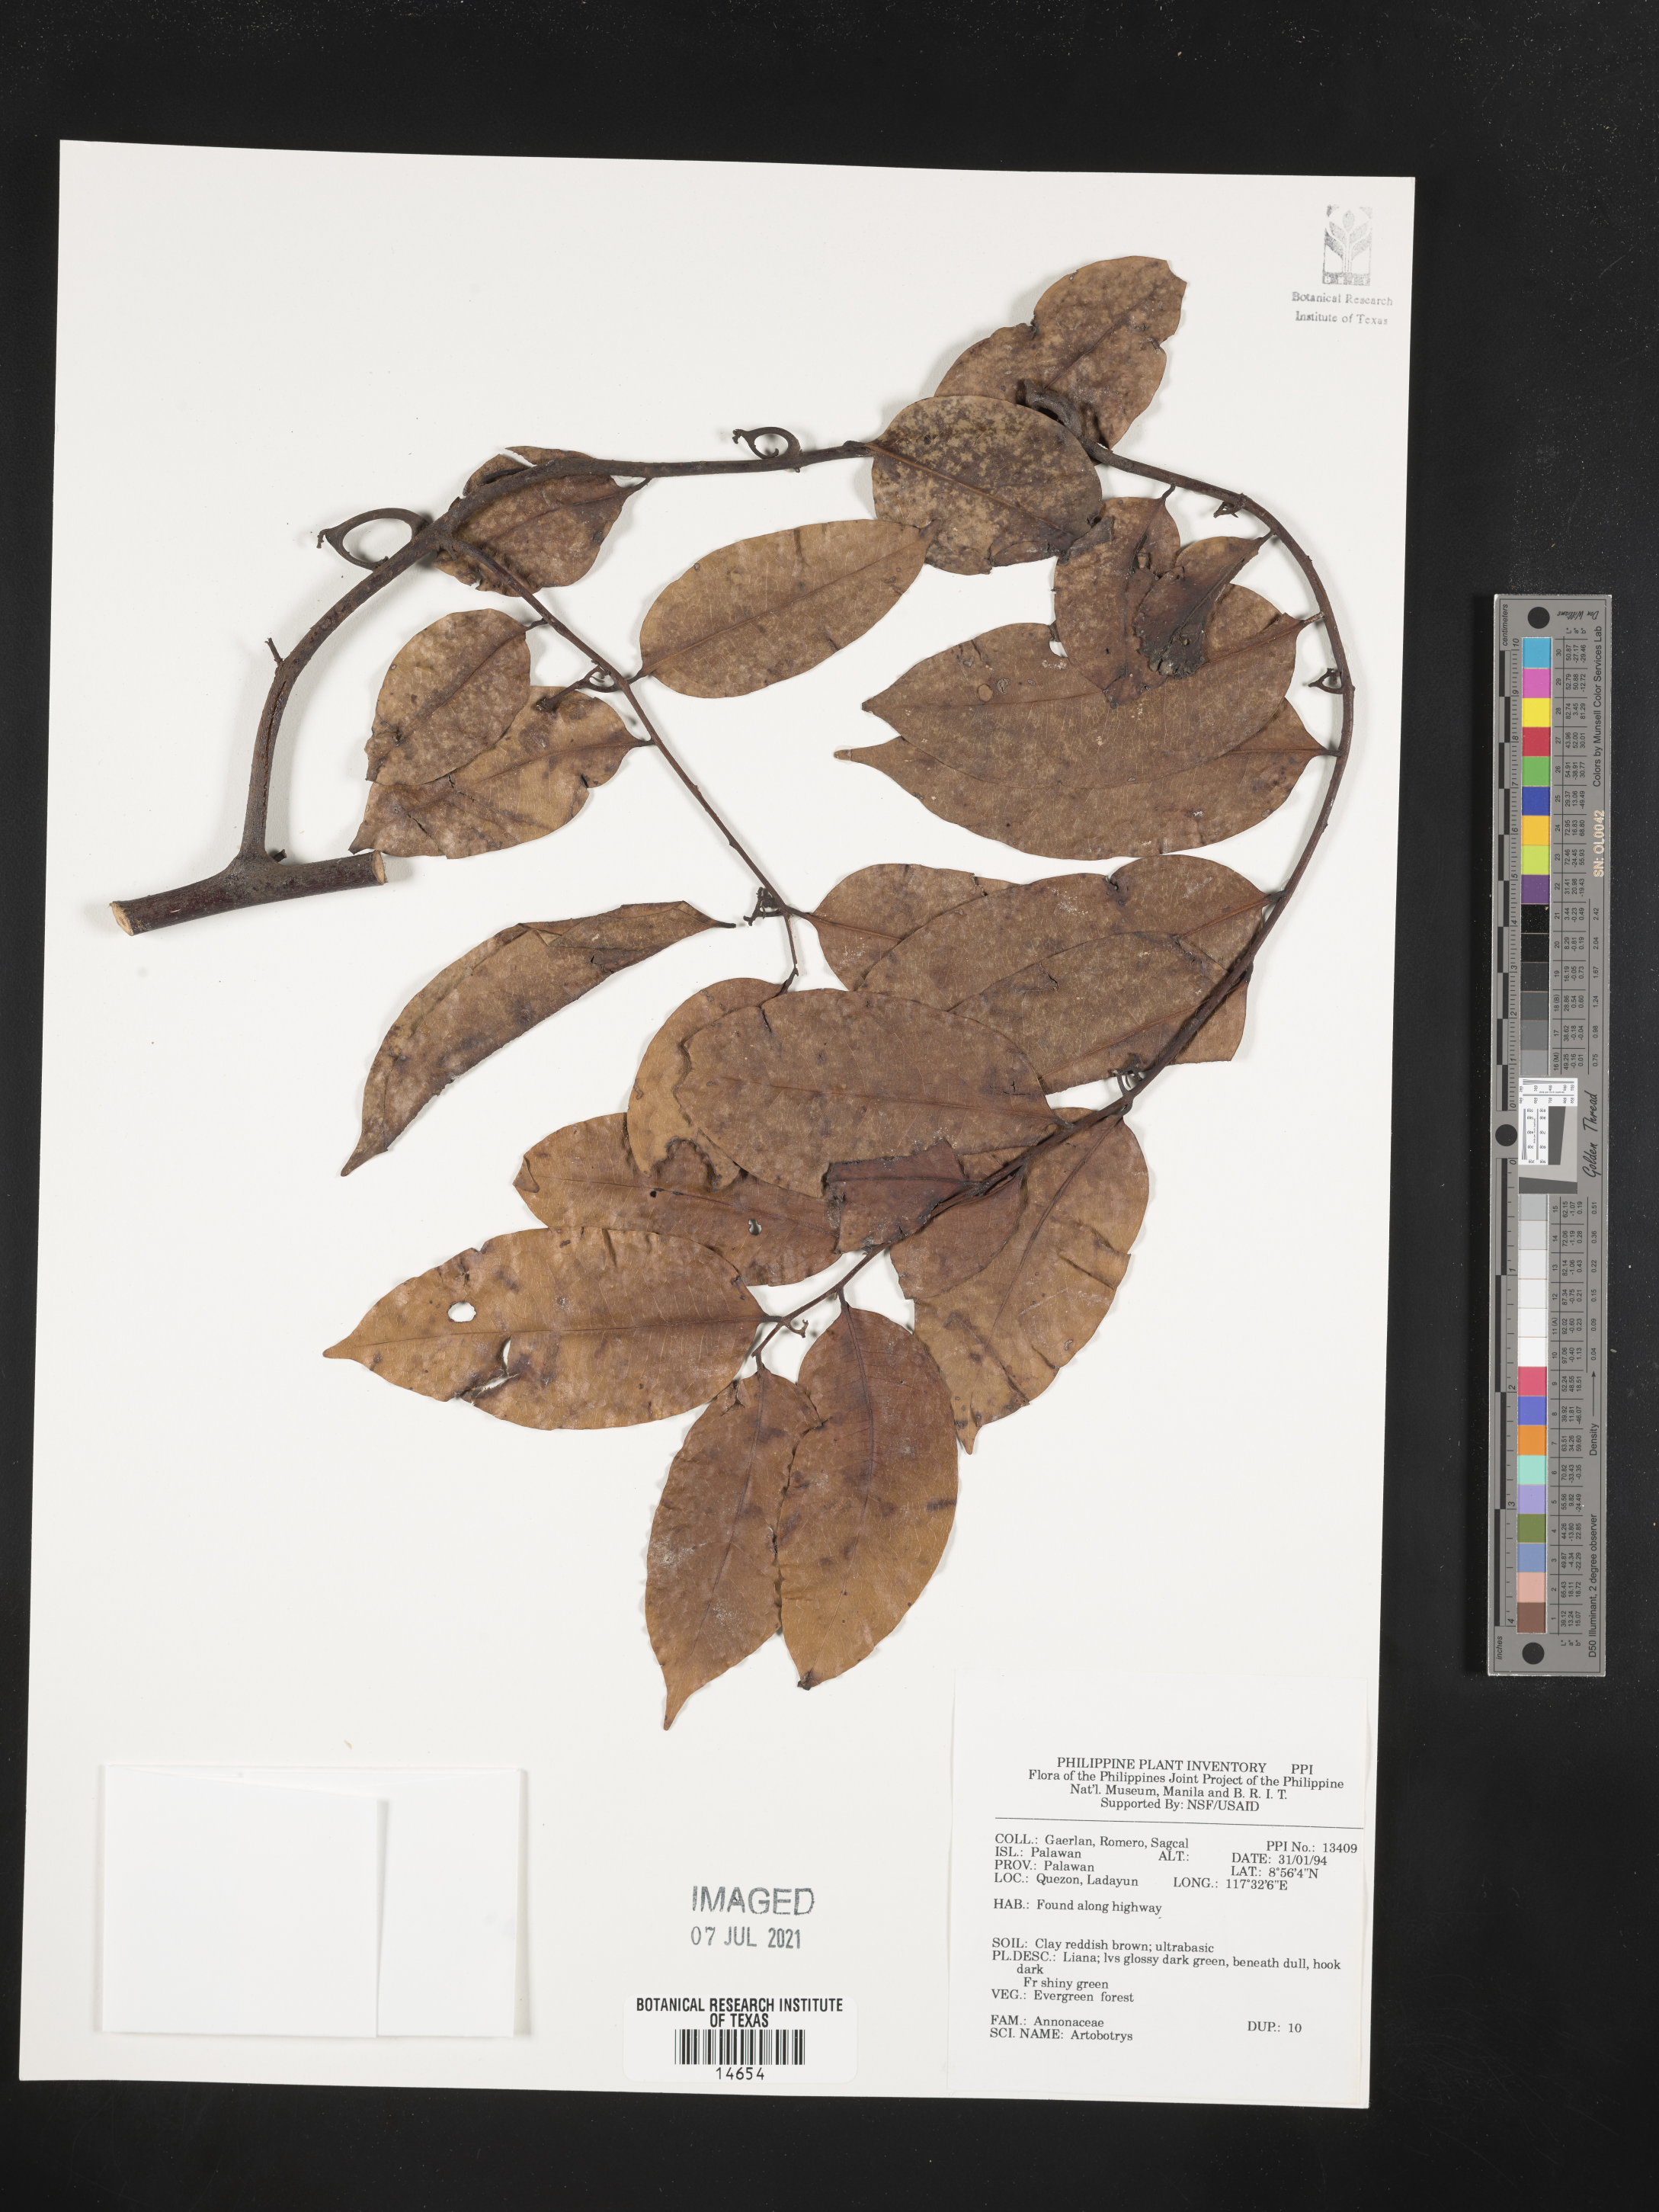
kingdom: Plantae
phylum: Tracheophyta
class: Magnoliopsida
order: Magnoliales
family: Annonaceae
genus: Artabotrys
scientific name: Artabotrys
